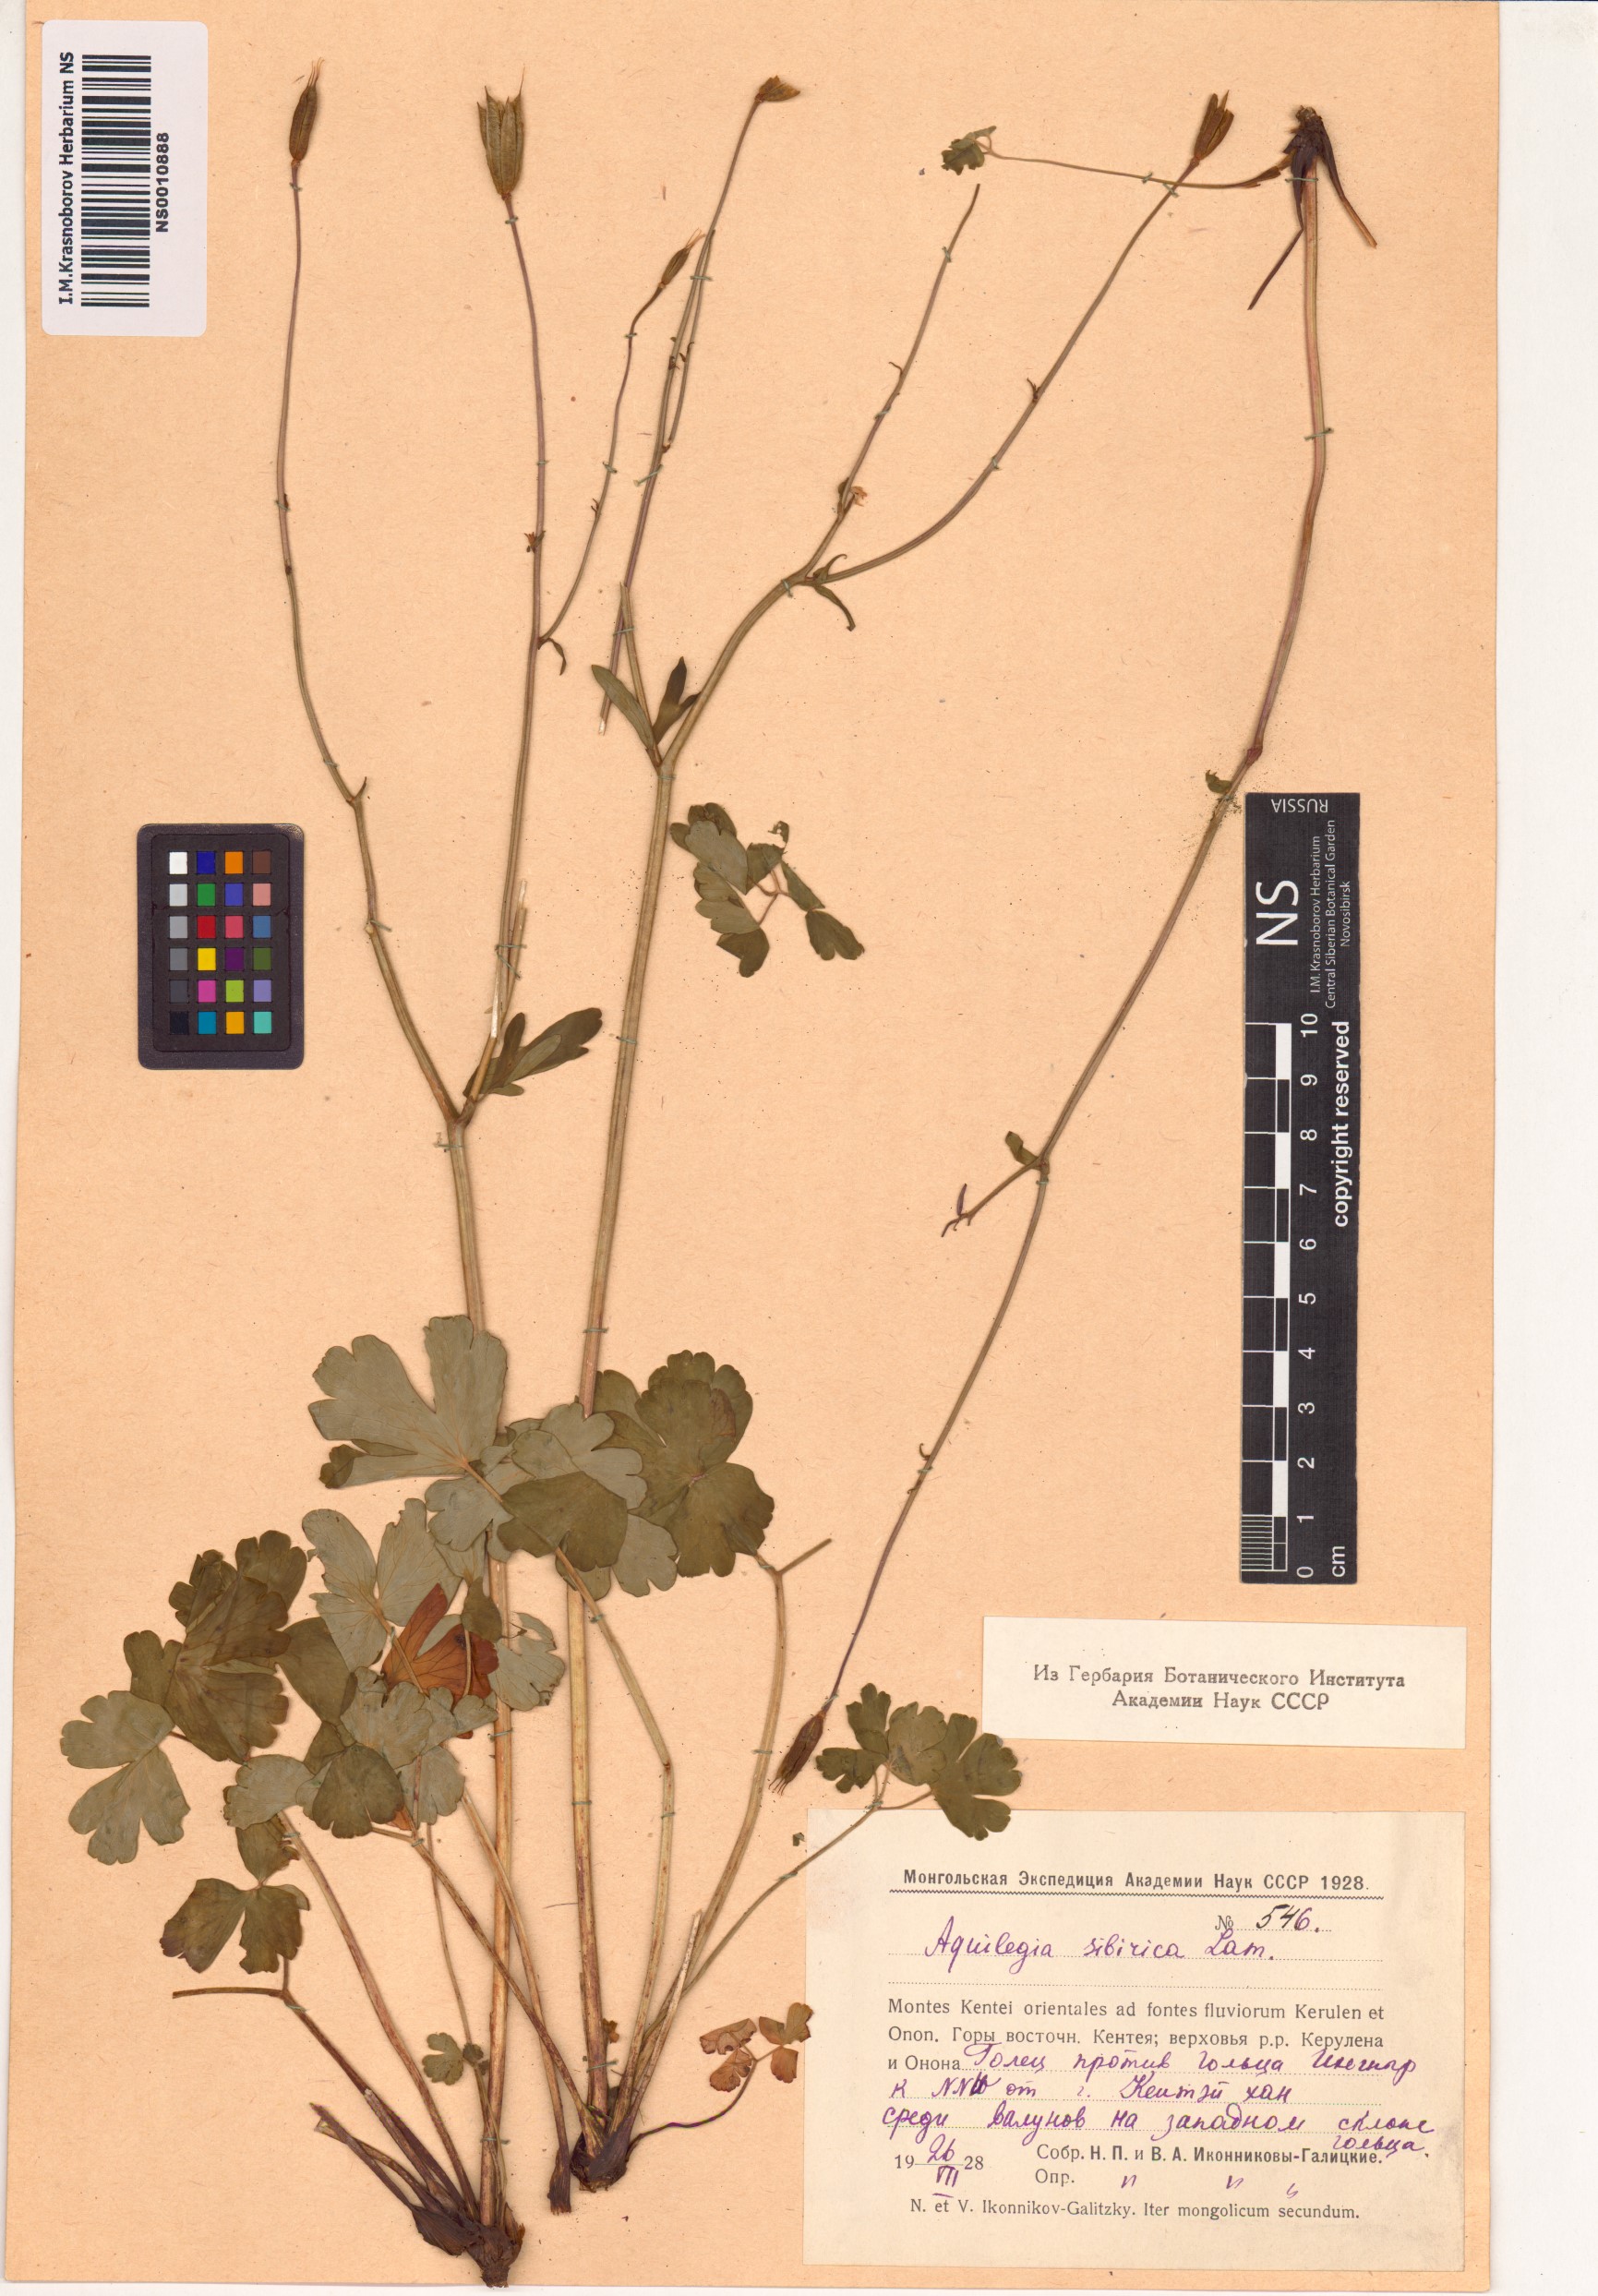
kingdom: Plantae
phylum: Tracheophyta
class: Magnoliopsida
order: Ranunculales
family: Ranunculaceae
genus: Aquilegia
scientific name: Aquilegia sibirica
